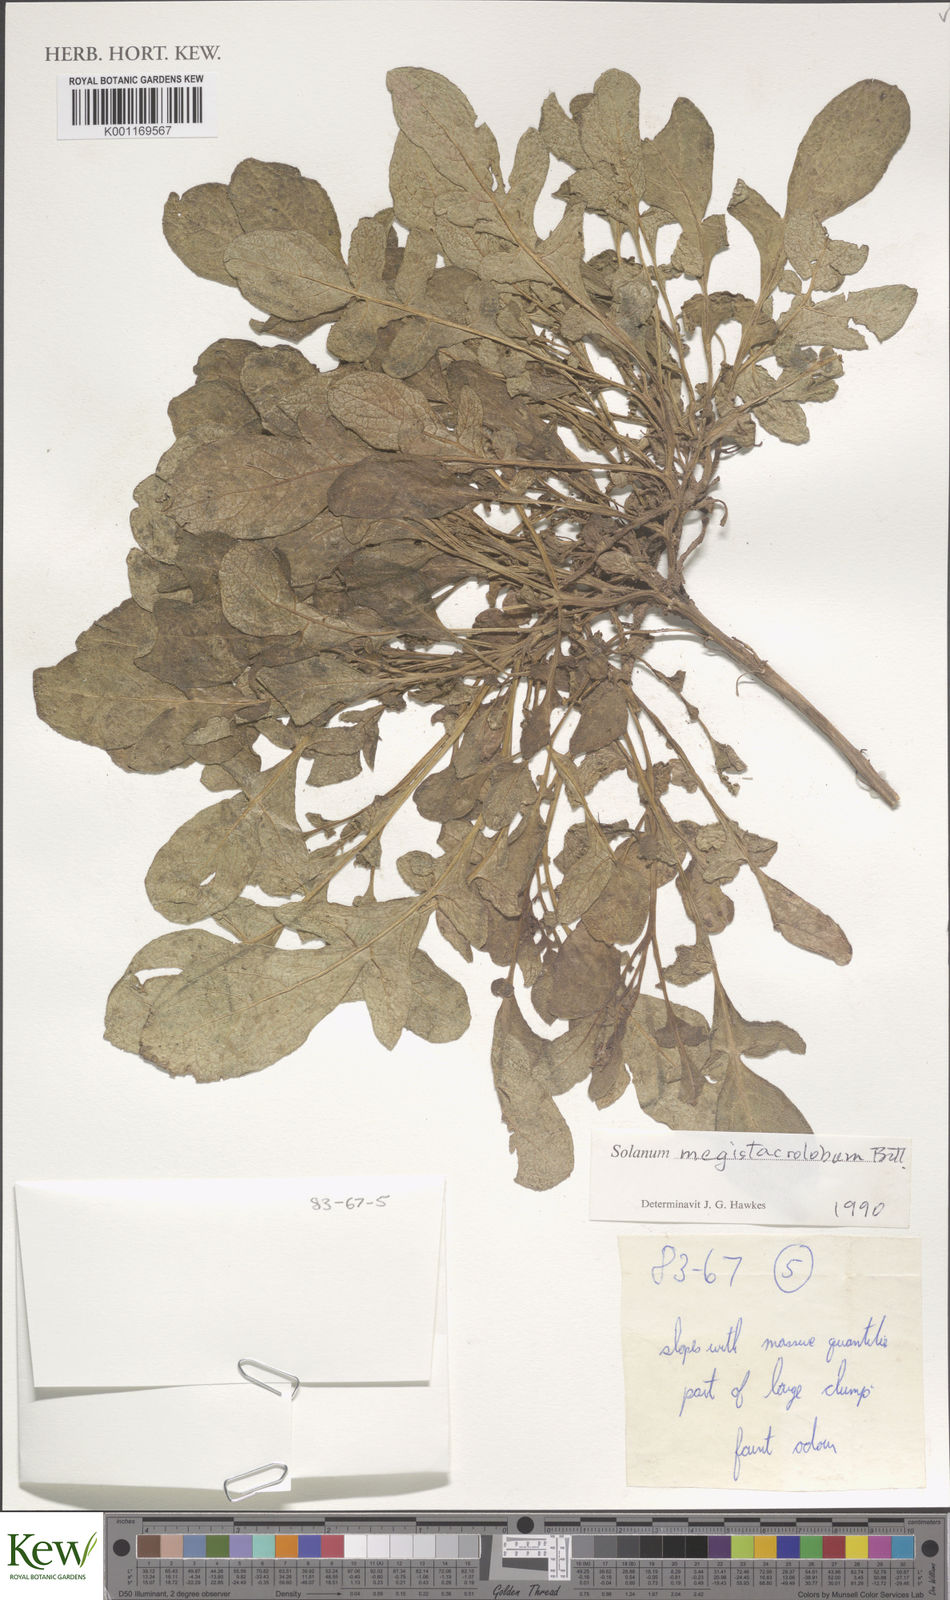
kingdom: Plantae
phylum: Tracheophyta
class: Magnoliopsida
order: Solanales
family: Solanaceae
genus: Solanum
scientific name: Solanum boliviense
